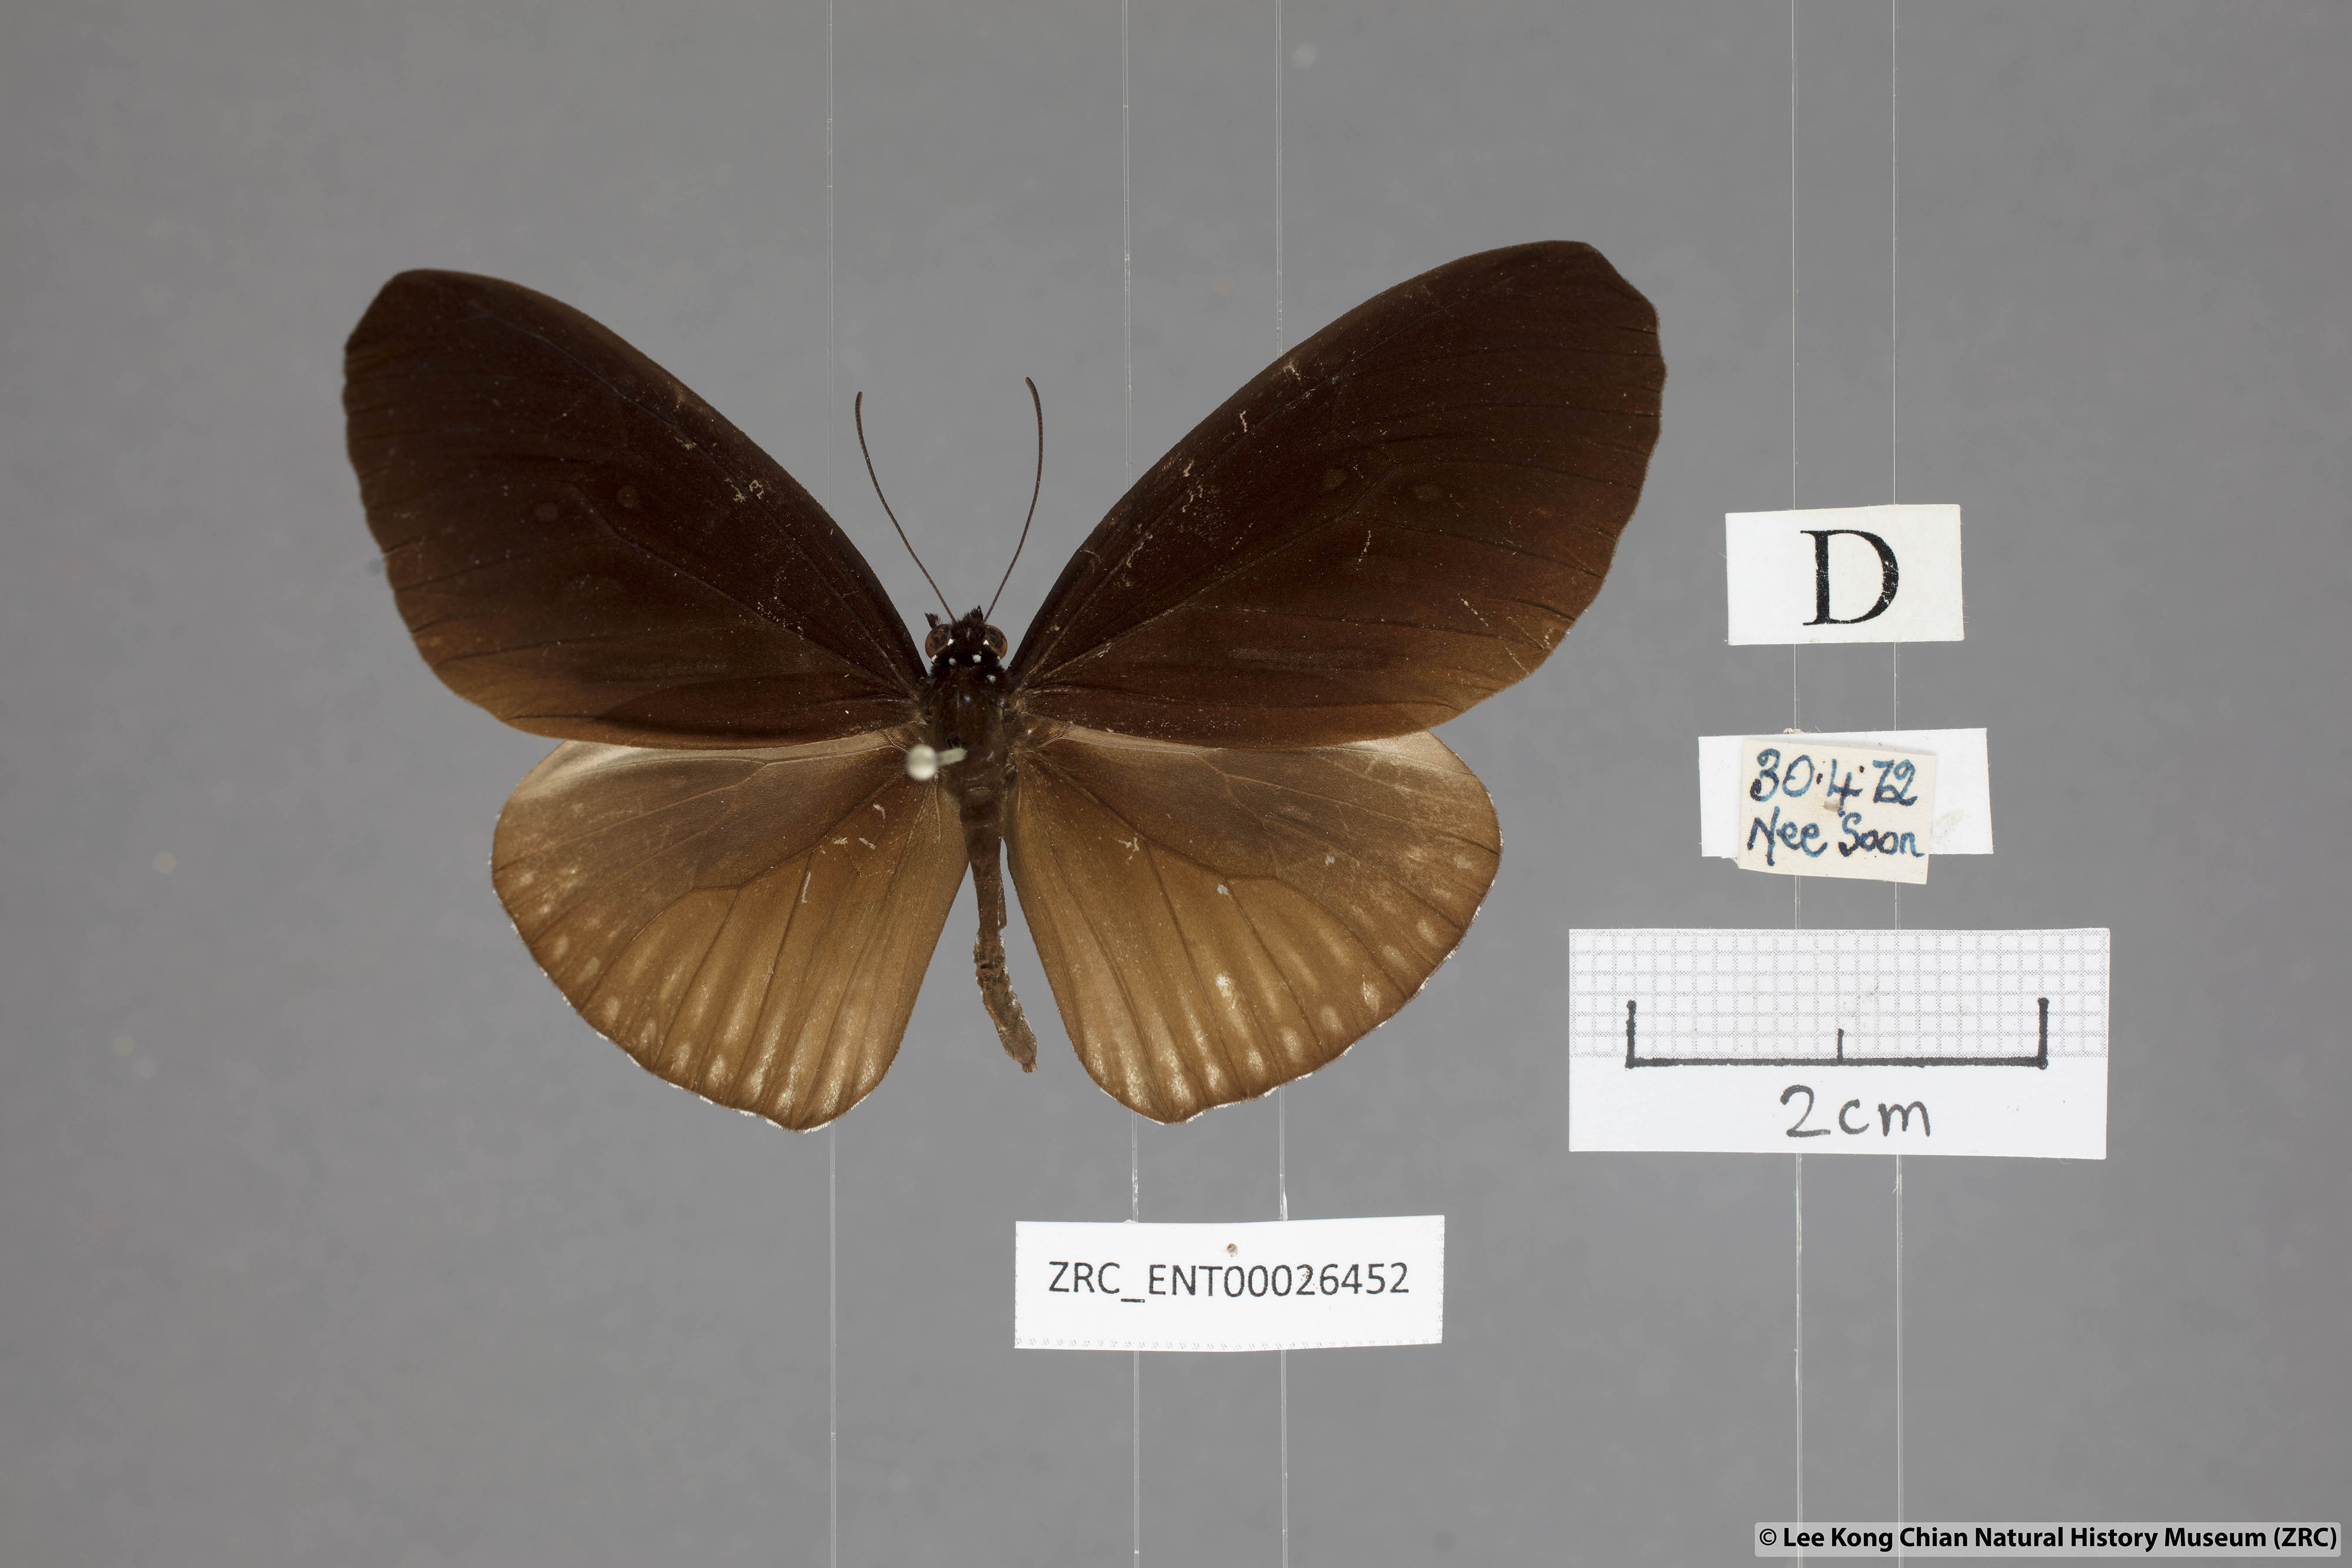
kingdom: Animalia
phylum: Arthropoda
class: Insecta
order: Lepidoptera
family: Nymphalidae
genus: Euploea
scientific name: Euploea eyndhovii
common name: Striped black crow butterfly
